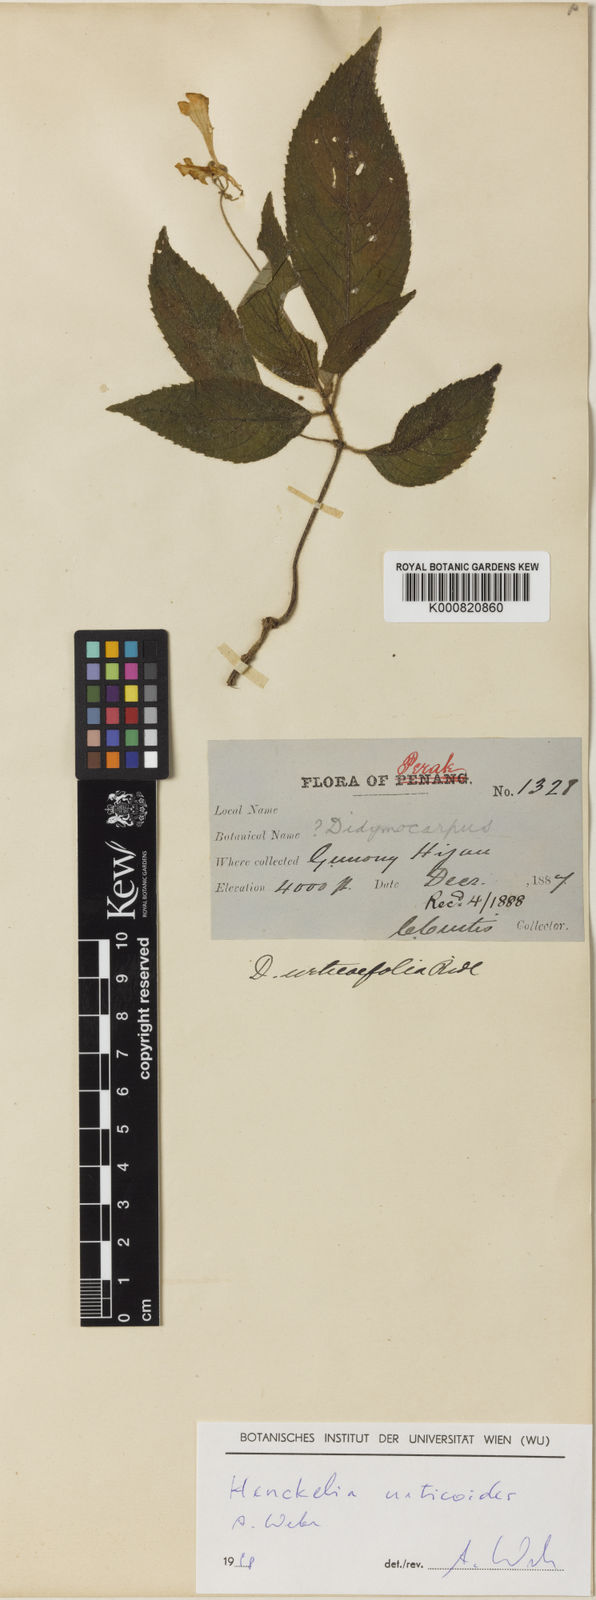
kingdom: Plantae
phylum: Tracheophyta
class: Magnoliopsida
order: Lamiales
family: Gesneriaceae
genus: Codonoboea
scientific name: Codonoboea urticoides
